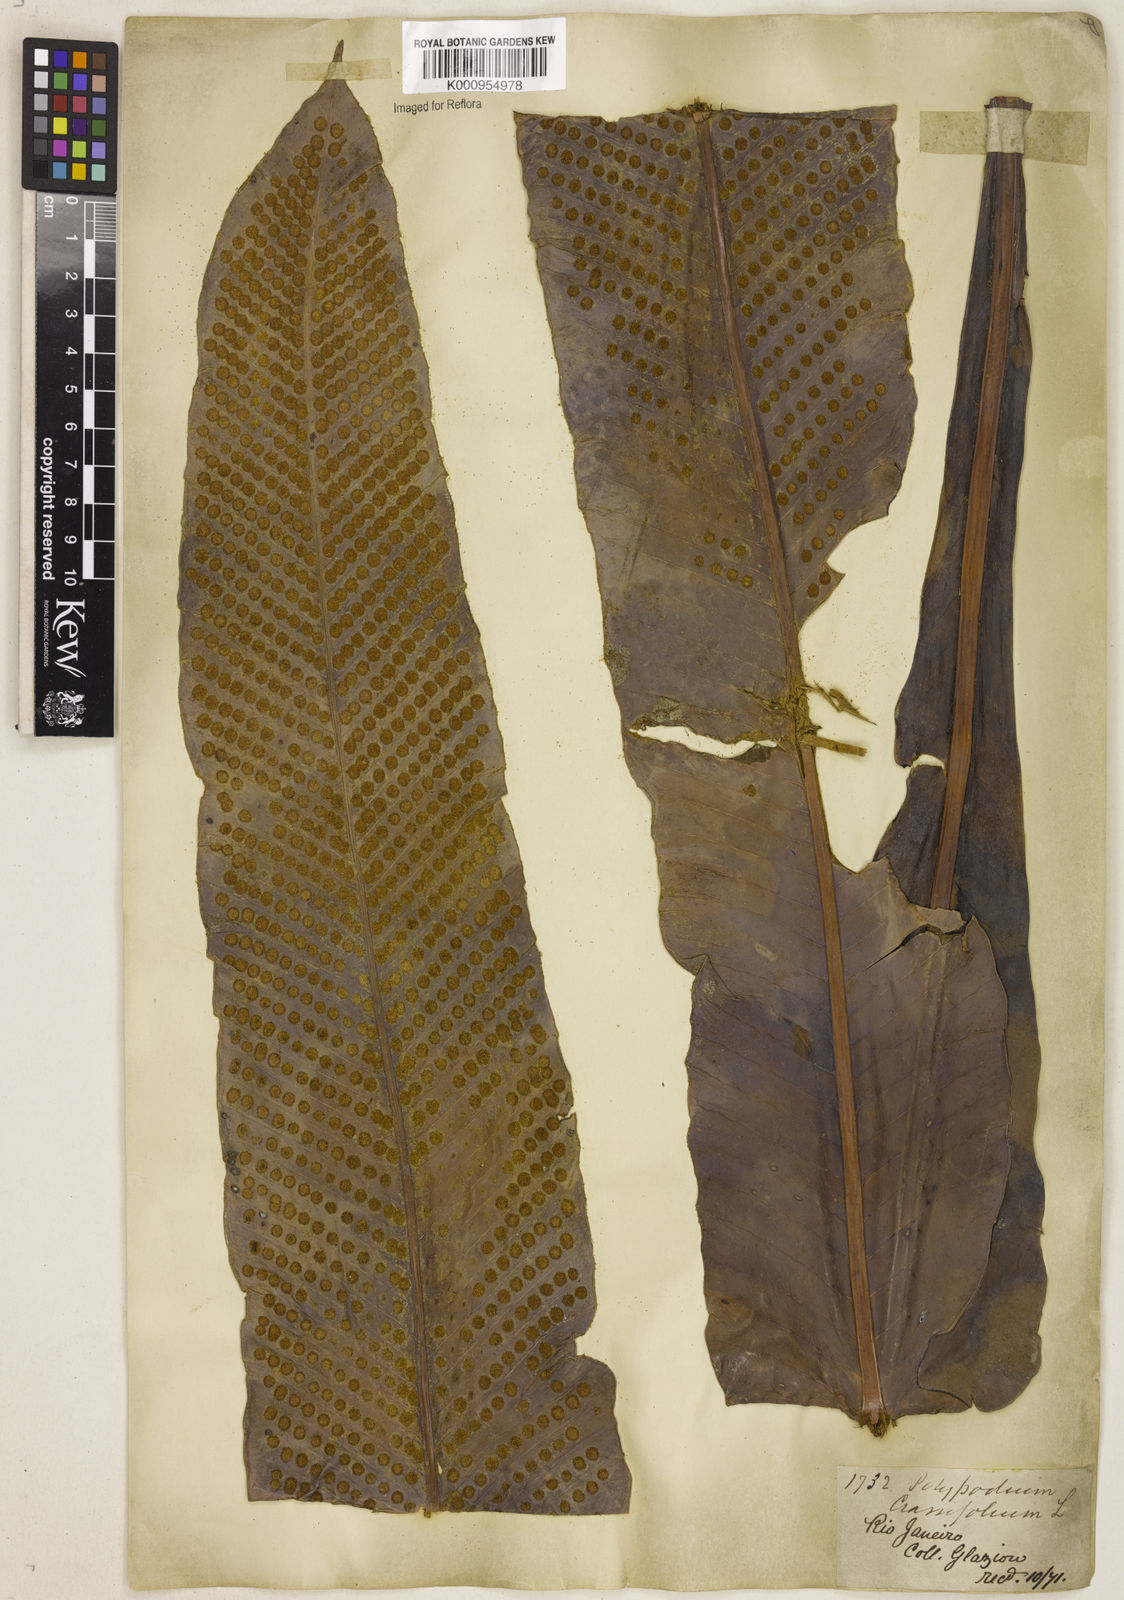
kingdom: Plantae
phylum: Tracheophyta
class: Polypodiopsida
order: Polypodiales
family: Polypodiaceae
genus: Niphidium
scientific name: Niphidium crassifolium
